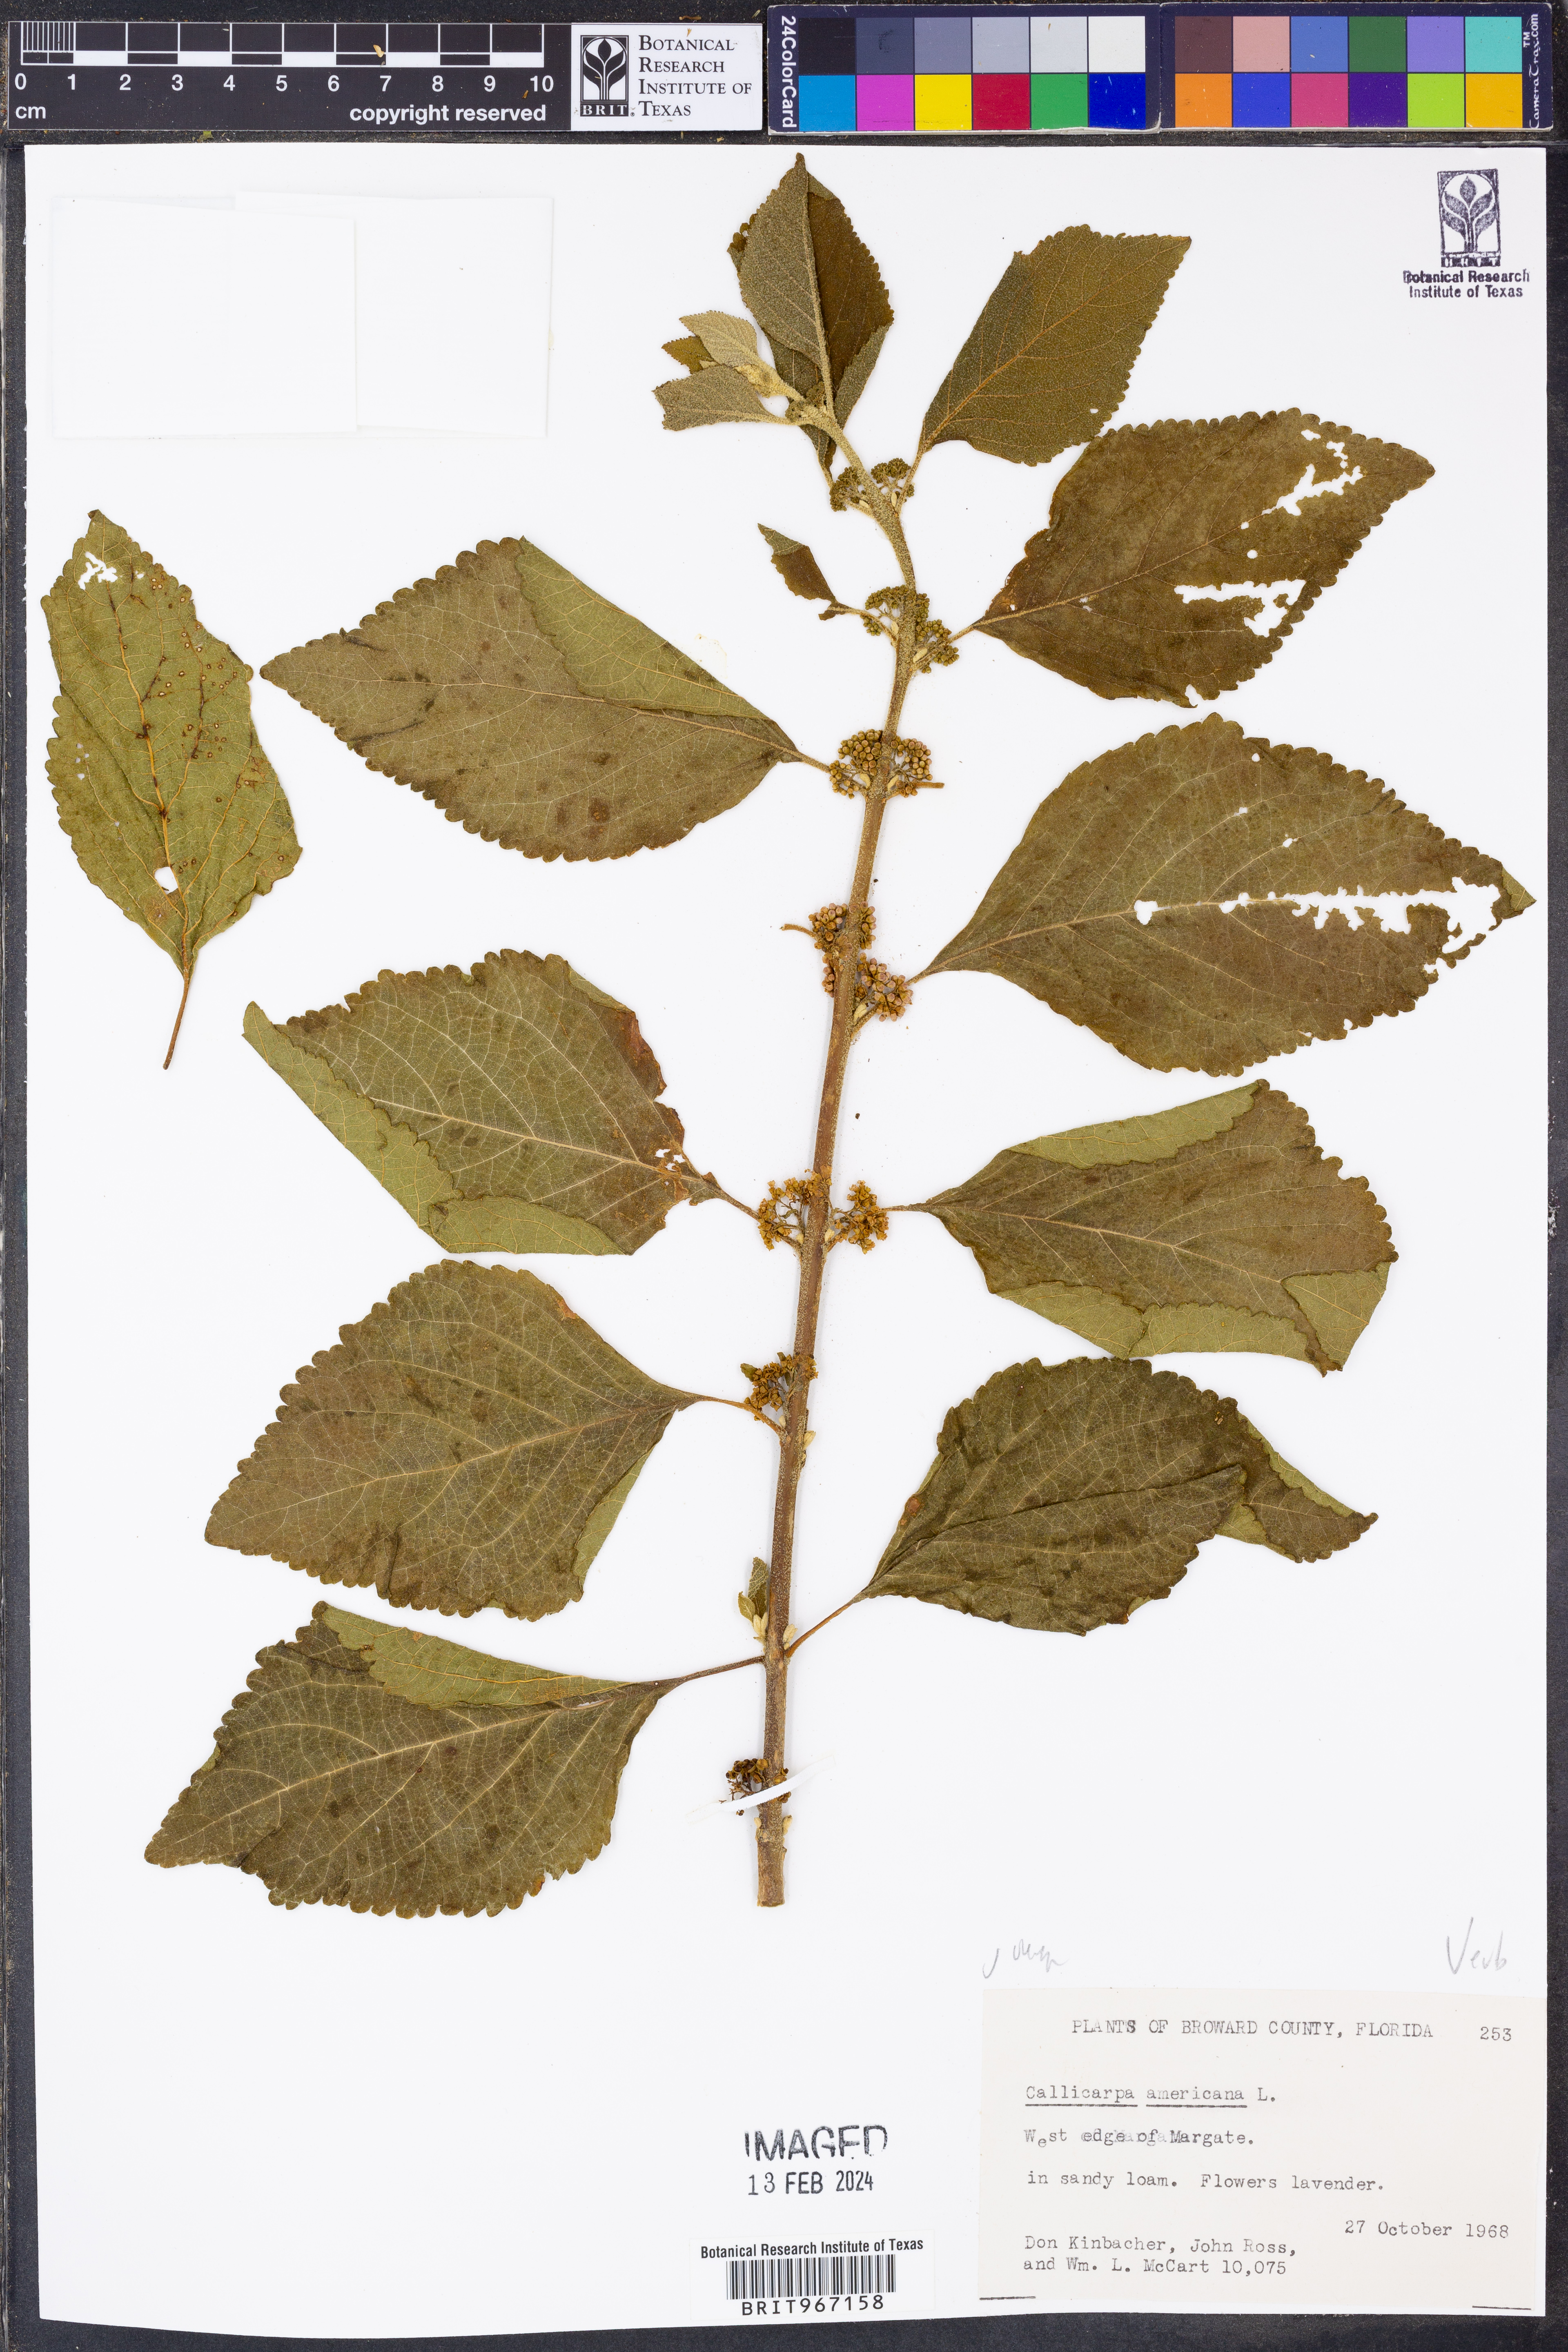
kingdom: Plantae
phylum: Tracheophyta
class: Magnoliopsida
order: Lamiales
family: Lamiaceae
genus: Callicarpa
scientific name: Callicarpa americana
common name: American beautyberry
